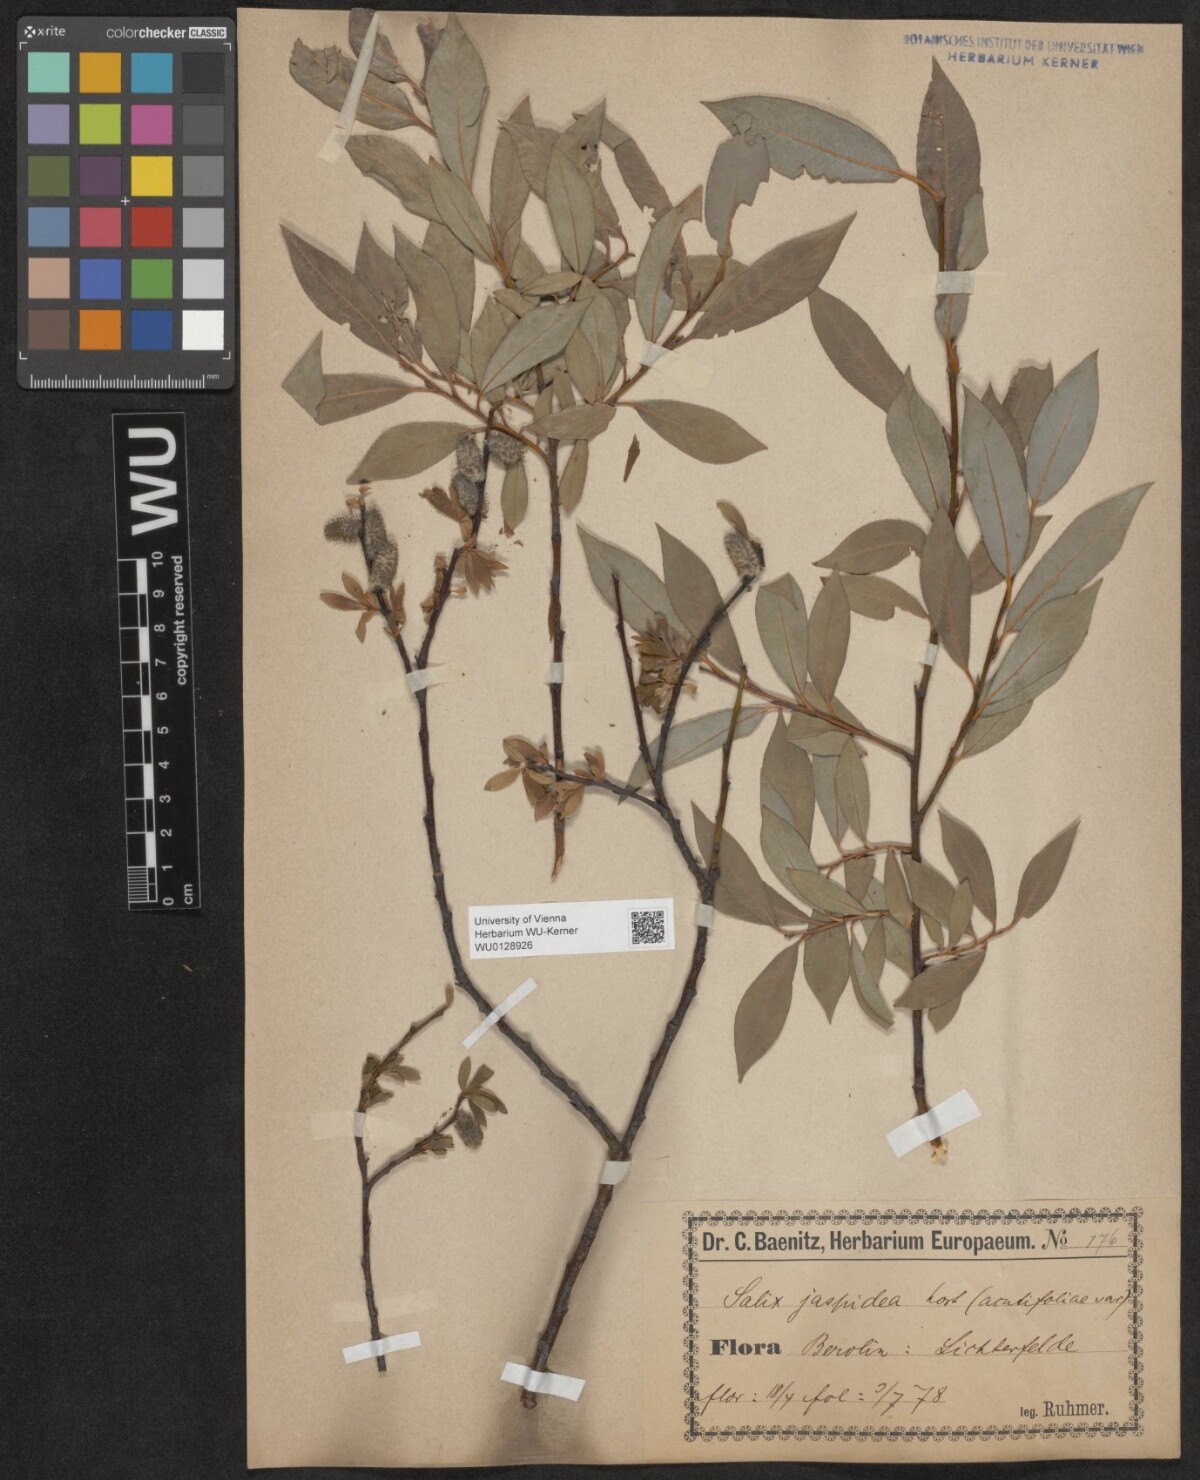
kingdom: Plantae
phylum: Tracheophyta
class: Magnoliopsida
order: Malpighiales
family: Salicaceae
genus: Salix
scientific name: Salix daphnoides
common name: European violet-willow
